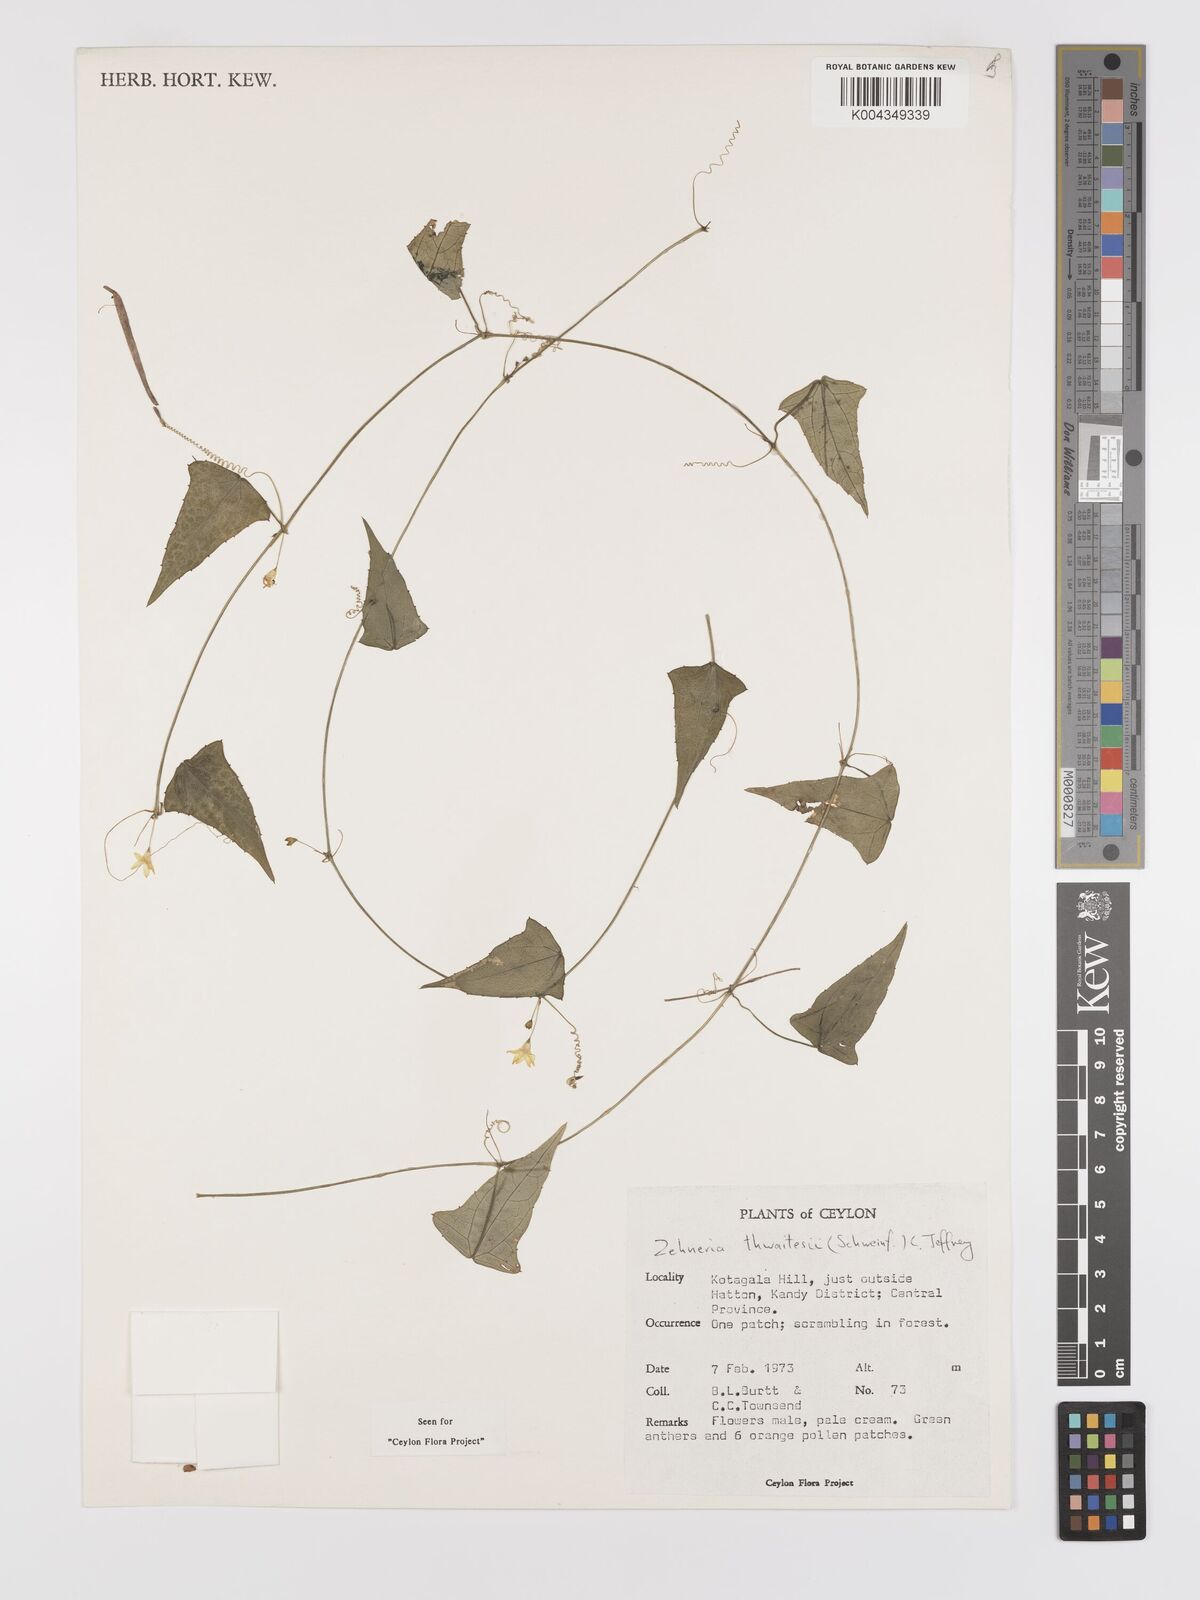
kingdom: Plantae
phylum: Tracheophyta
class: Magnoliopsida
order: Cucurbitales
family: Cucurbitaceae
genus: Zehneria
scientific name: Zehneria thwaitesii
